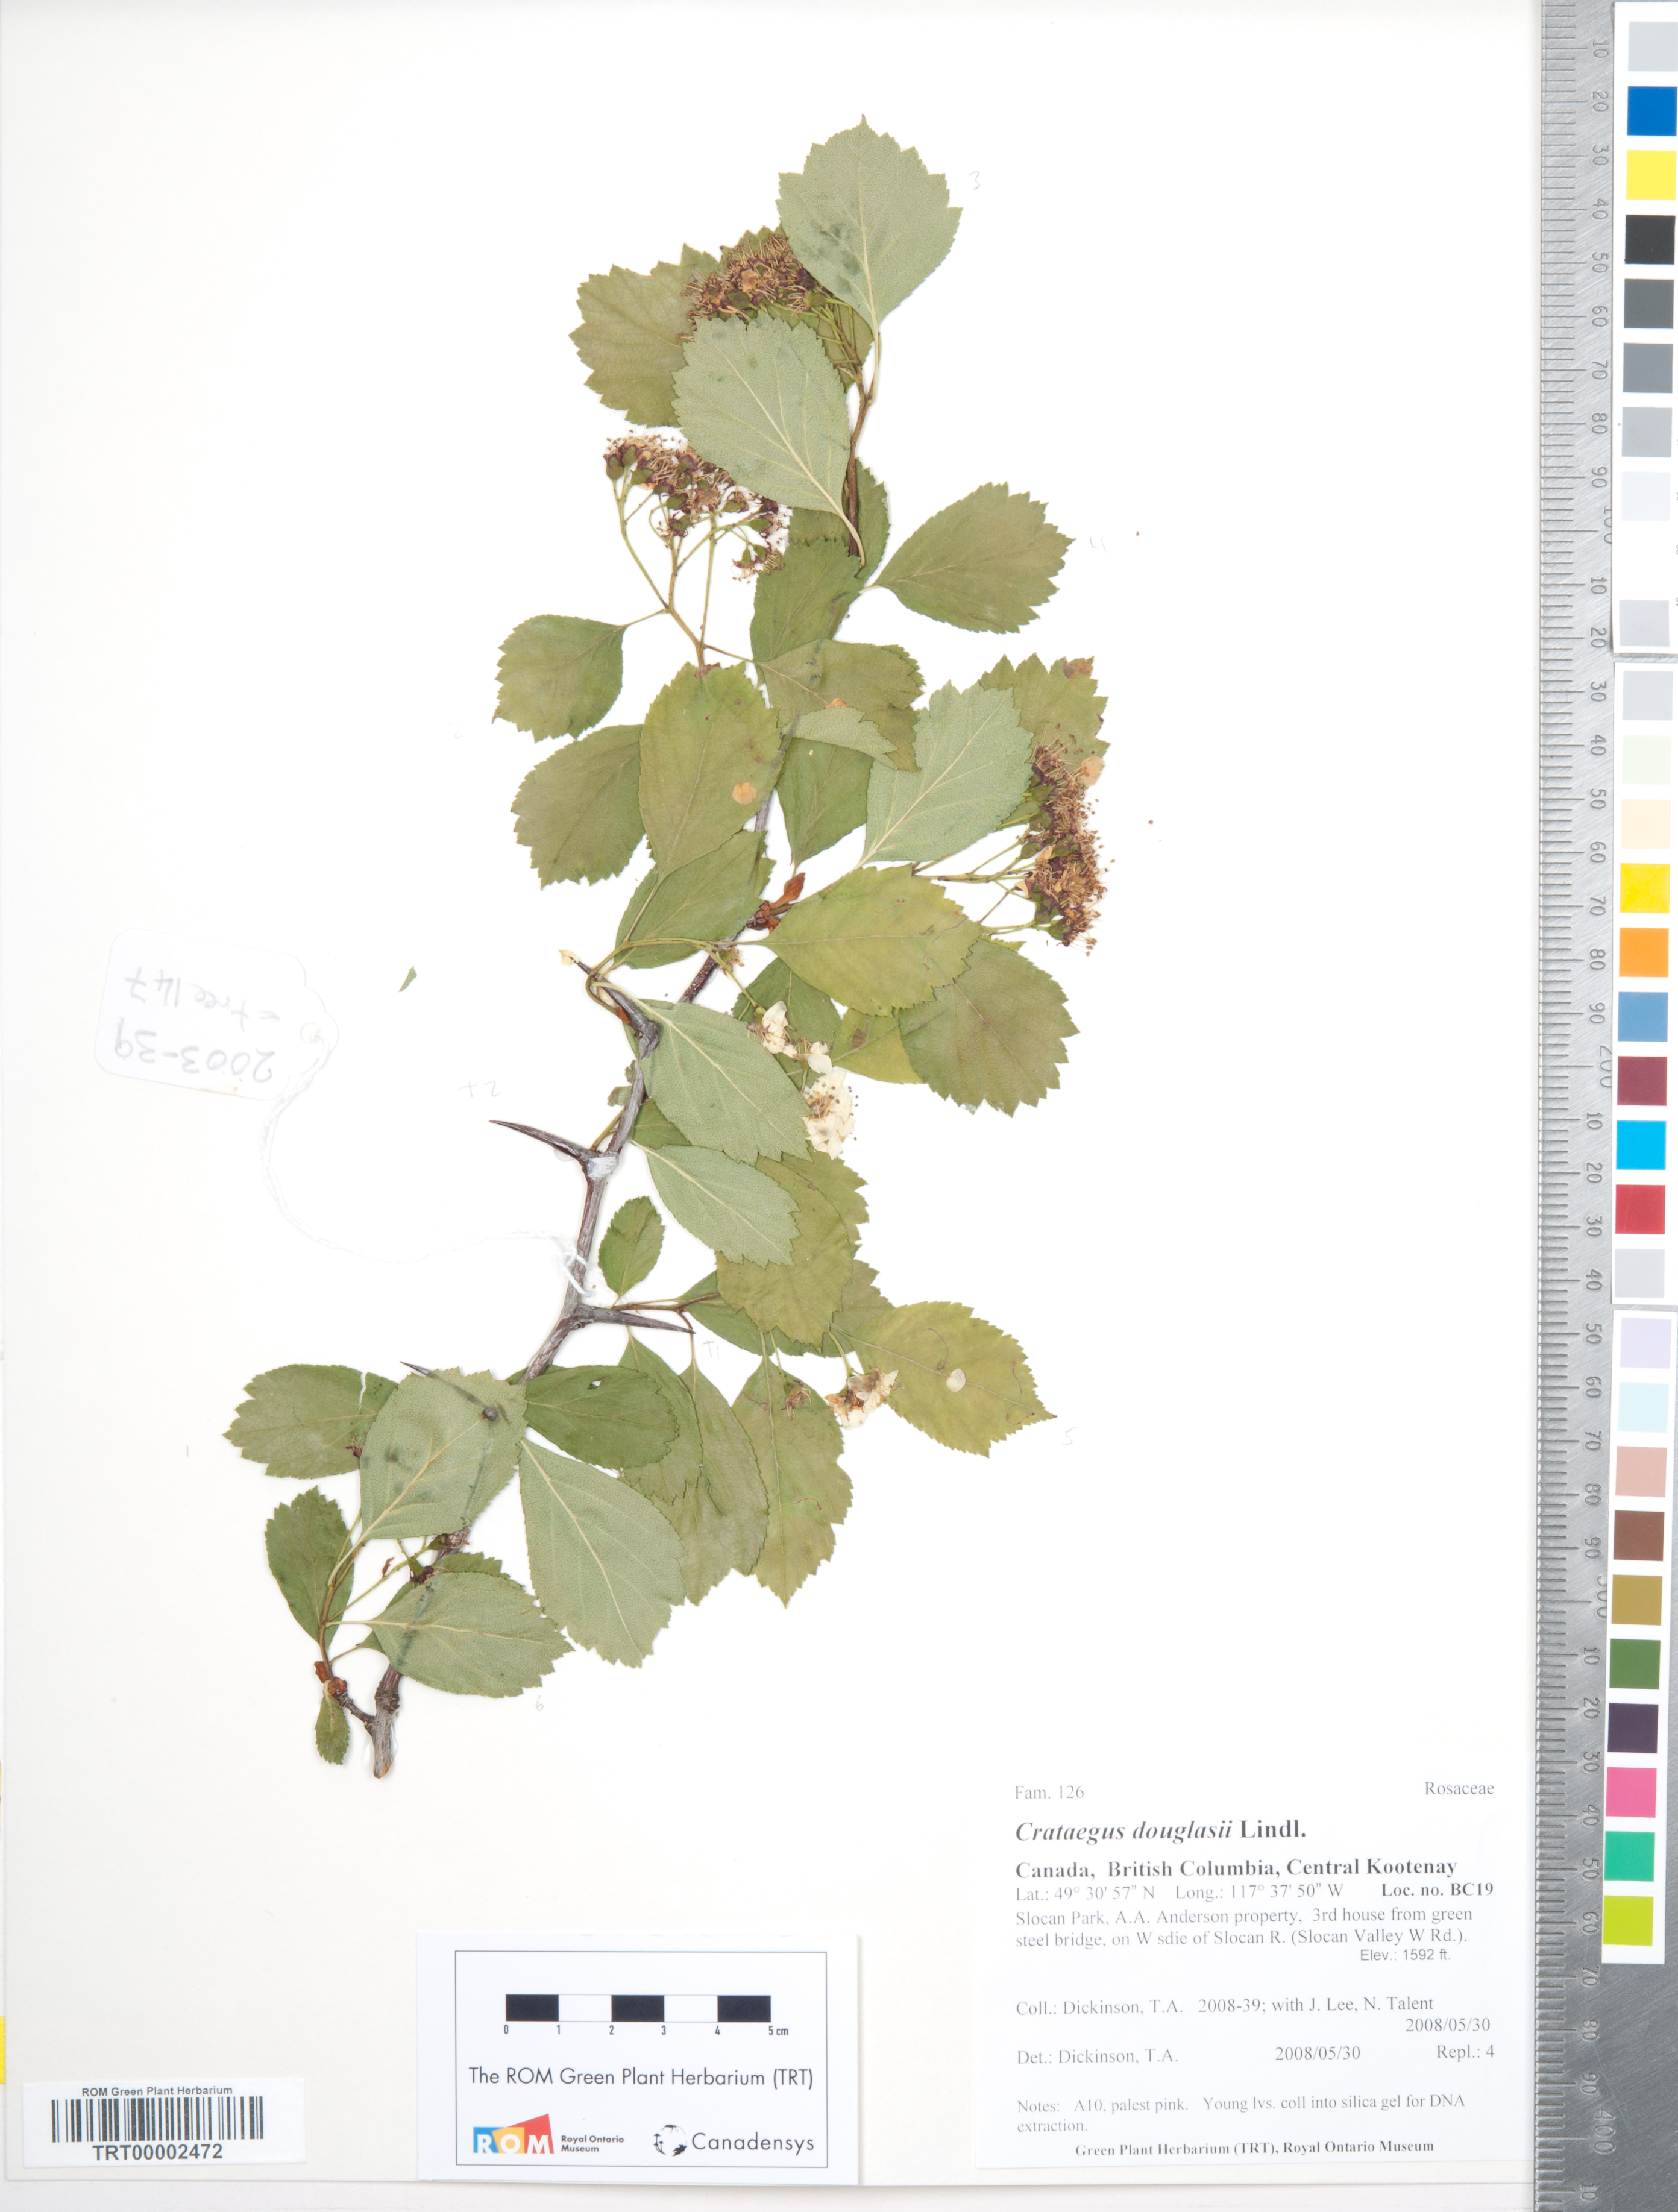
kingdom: Plantae
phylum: Tracheophyta
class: Magnoliopsida
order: Rosales
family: Rosaceae
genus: Crataegus
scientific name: Crataegus douglasii
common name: Black hawthorn
